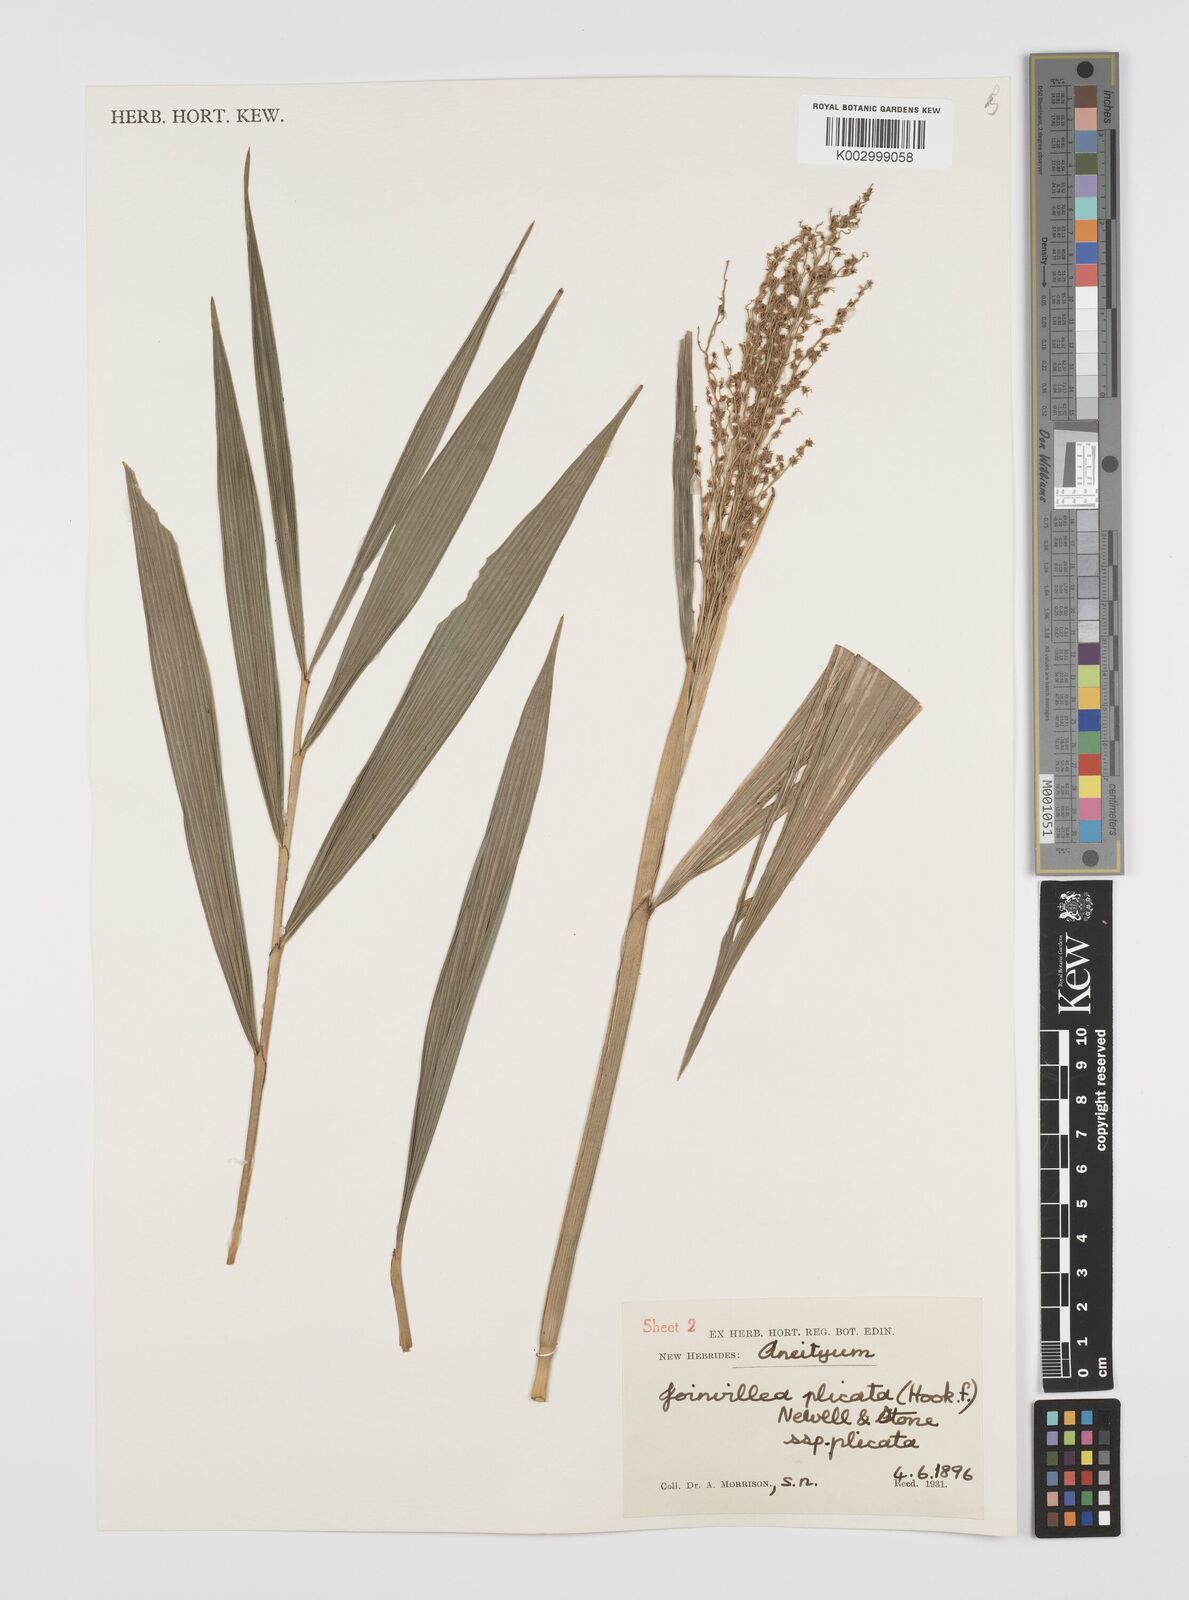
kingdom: Plantae
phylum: Tracheophyta
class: Liliopsida
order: Poales
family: Joinvilleaceae
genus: Joinvillea
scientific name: Joinvillea plicata
